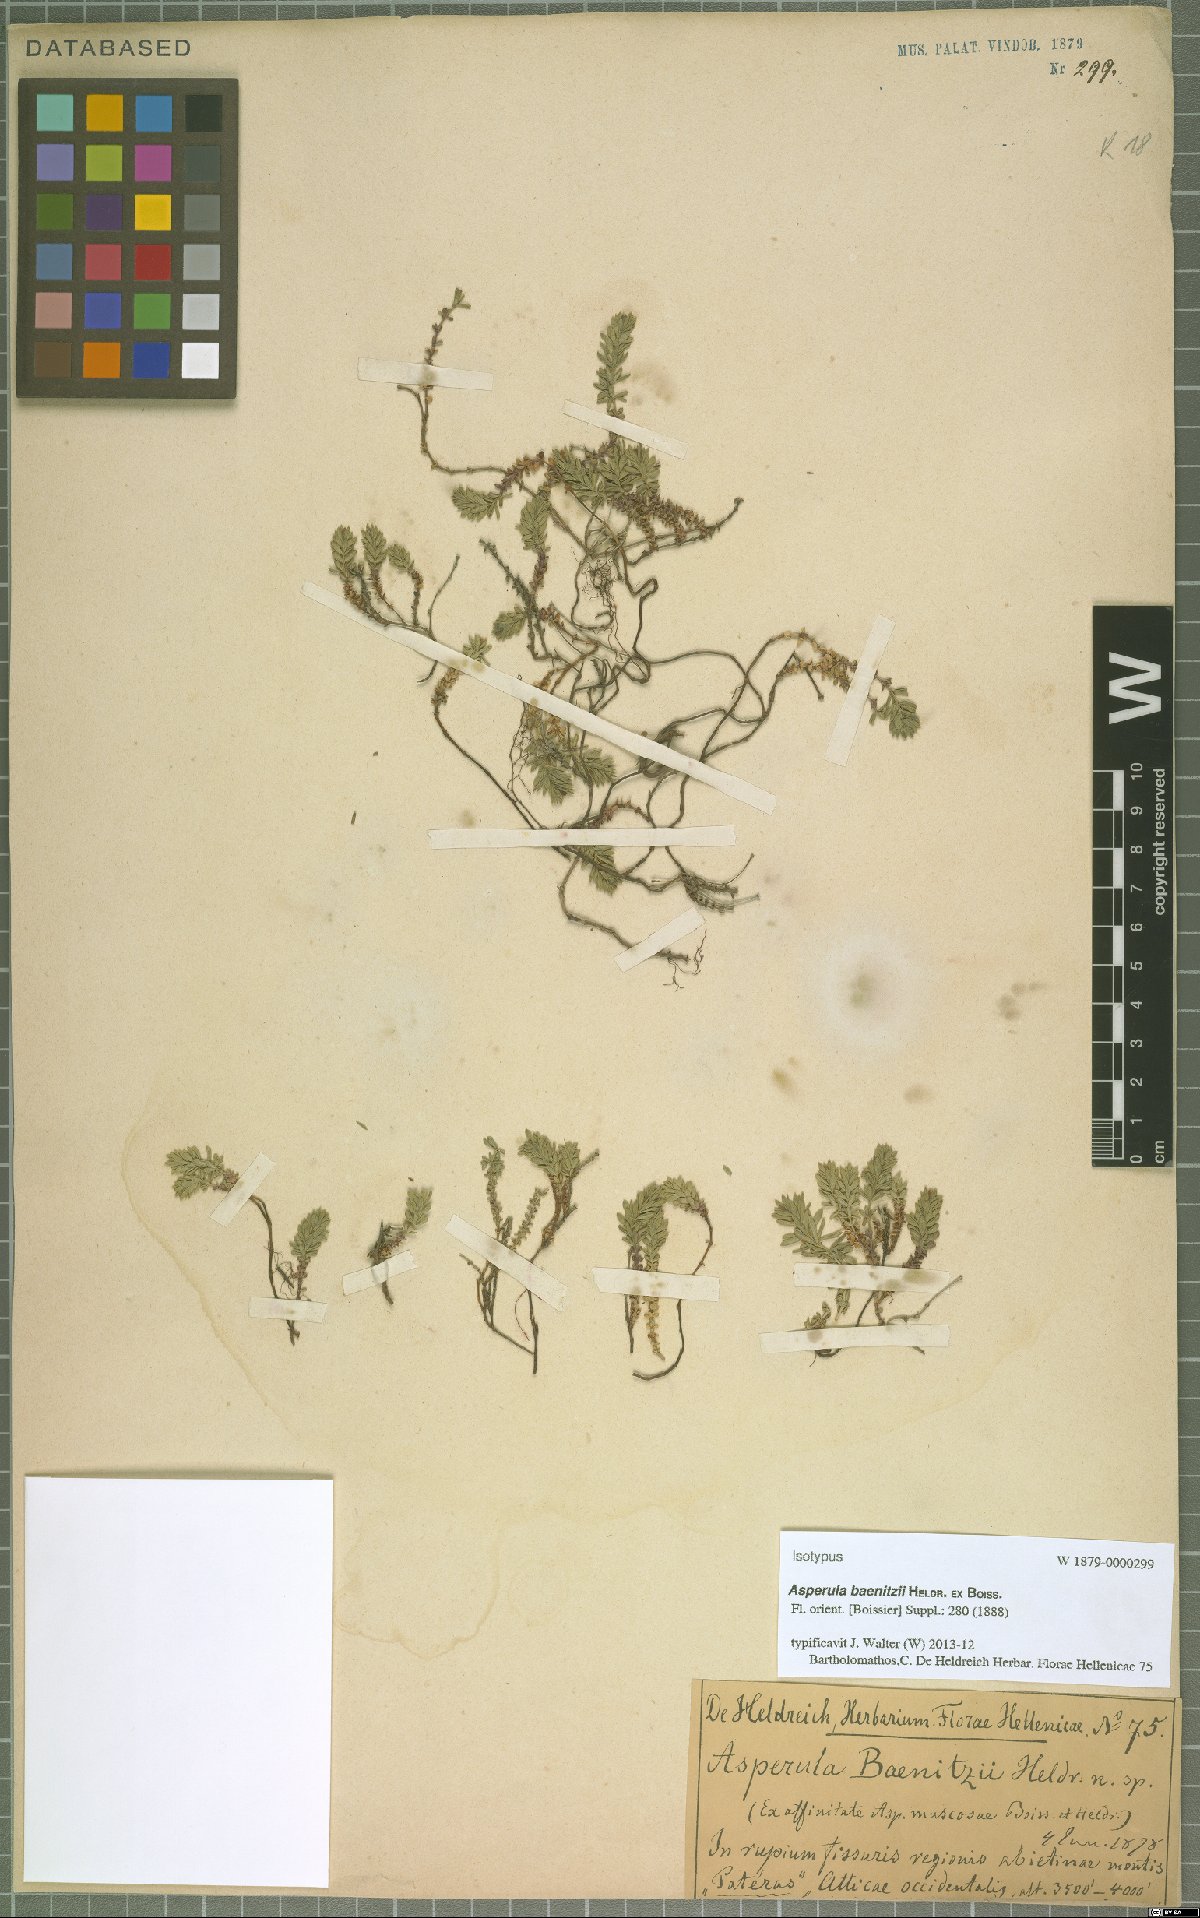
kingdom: Plantae
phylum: Tracheophyta
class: Magnoliopsida
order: Gentianales
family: Rubiaceae
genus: Thliphthisa
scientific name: Thliphthisa baenitzii
